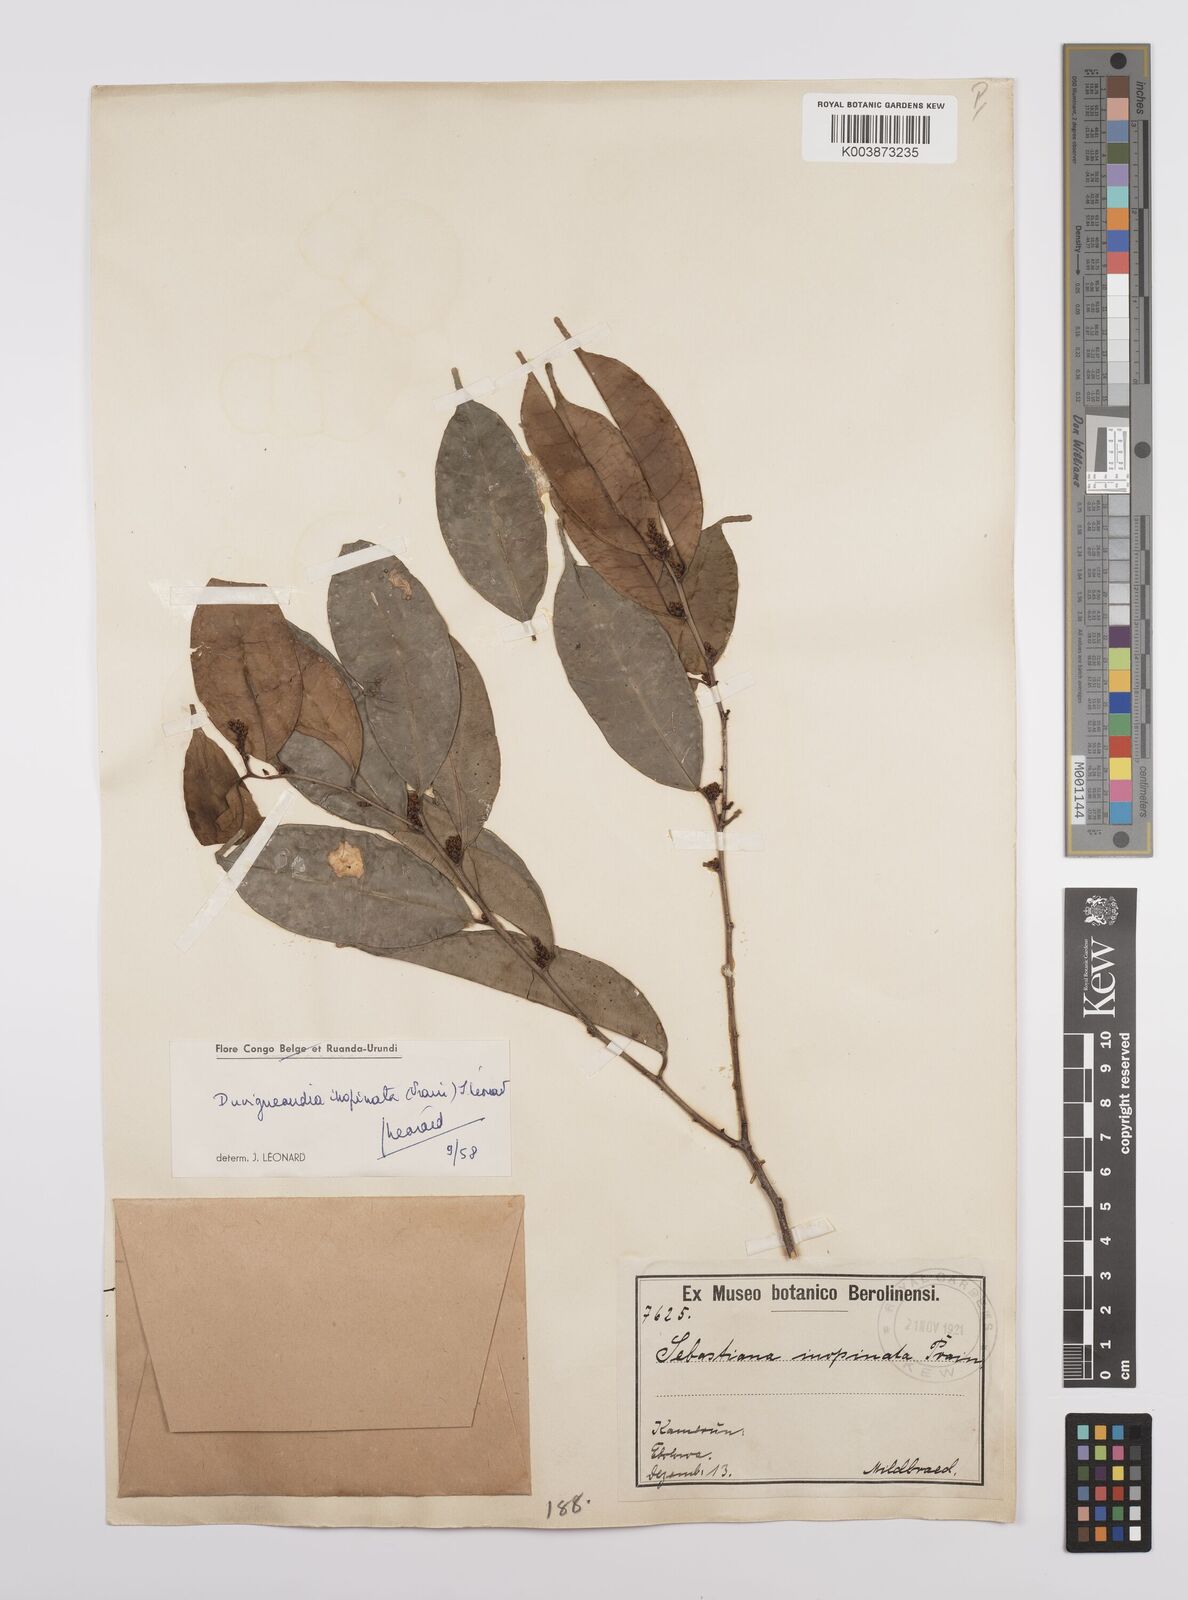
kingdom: Plantae
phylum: Tracheophyta
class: Magnoliopsida
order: Malpighiales
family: Euphorbiaceae
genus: Gymnanthes
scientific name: Gymnanthes inopinata
